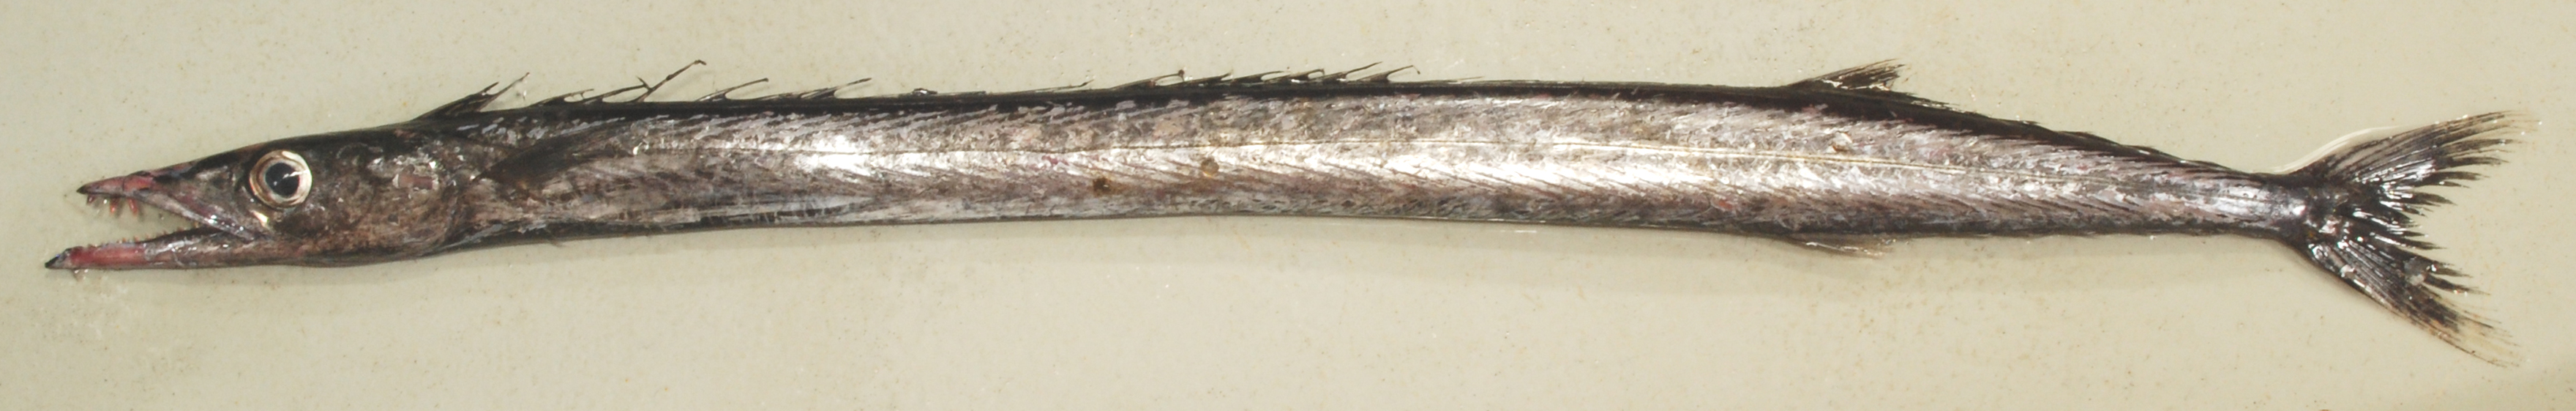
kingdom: Animalia
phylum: Chordata
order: Perciformes
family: Gempylidae
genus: Gempylus
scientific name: Gempylus serpens
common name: Snake mackerel
